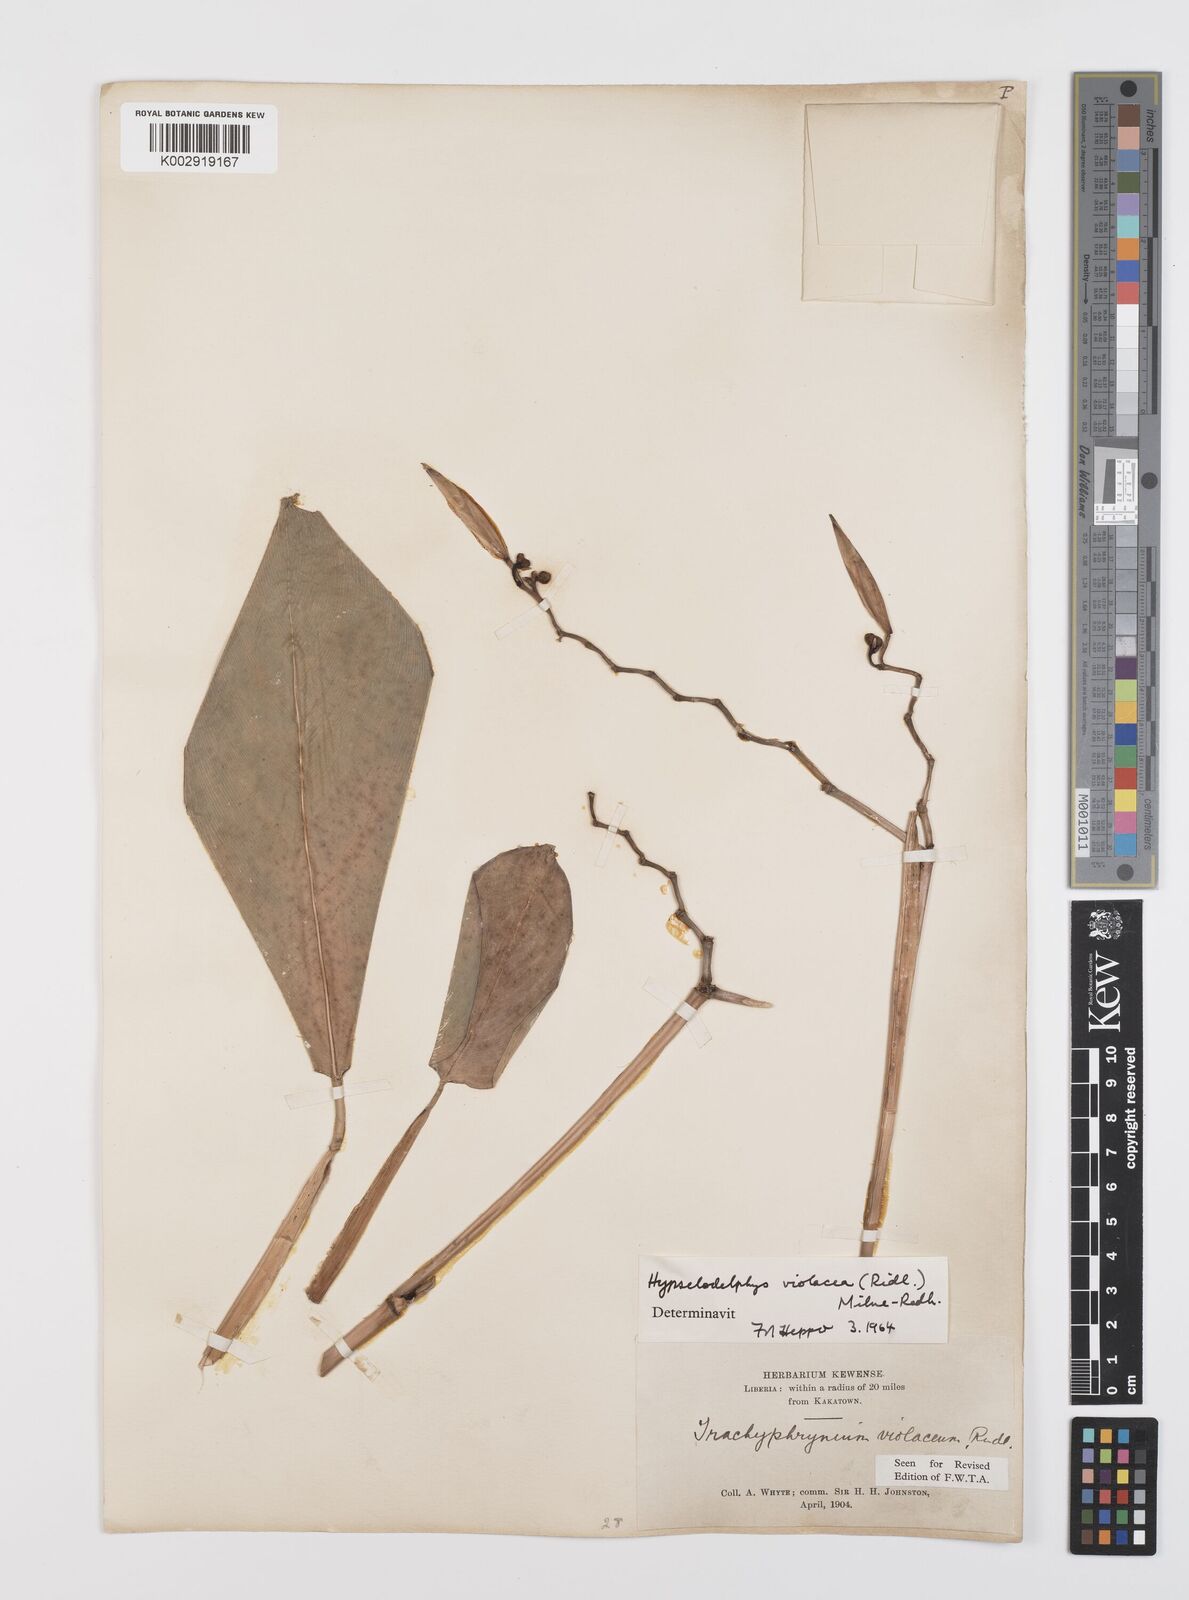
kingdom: Plantae
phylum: Tracheophyta
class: Liliopsida
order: Zingiberales
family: Marantaceae
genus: Hypselodelphys
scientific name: Hypselodelphys violacea
